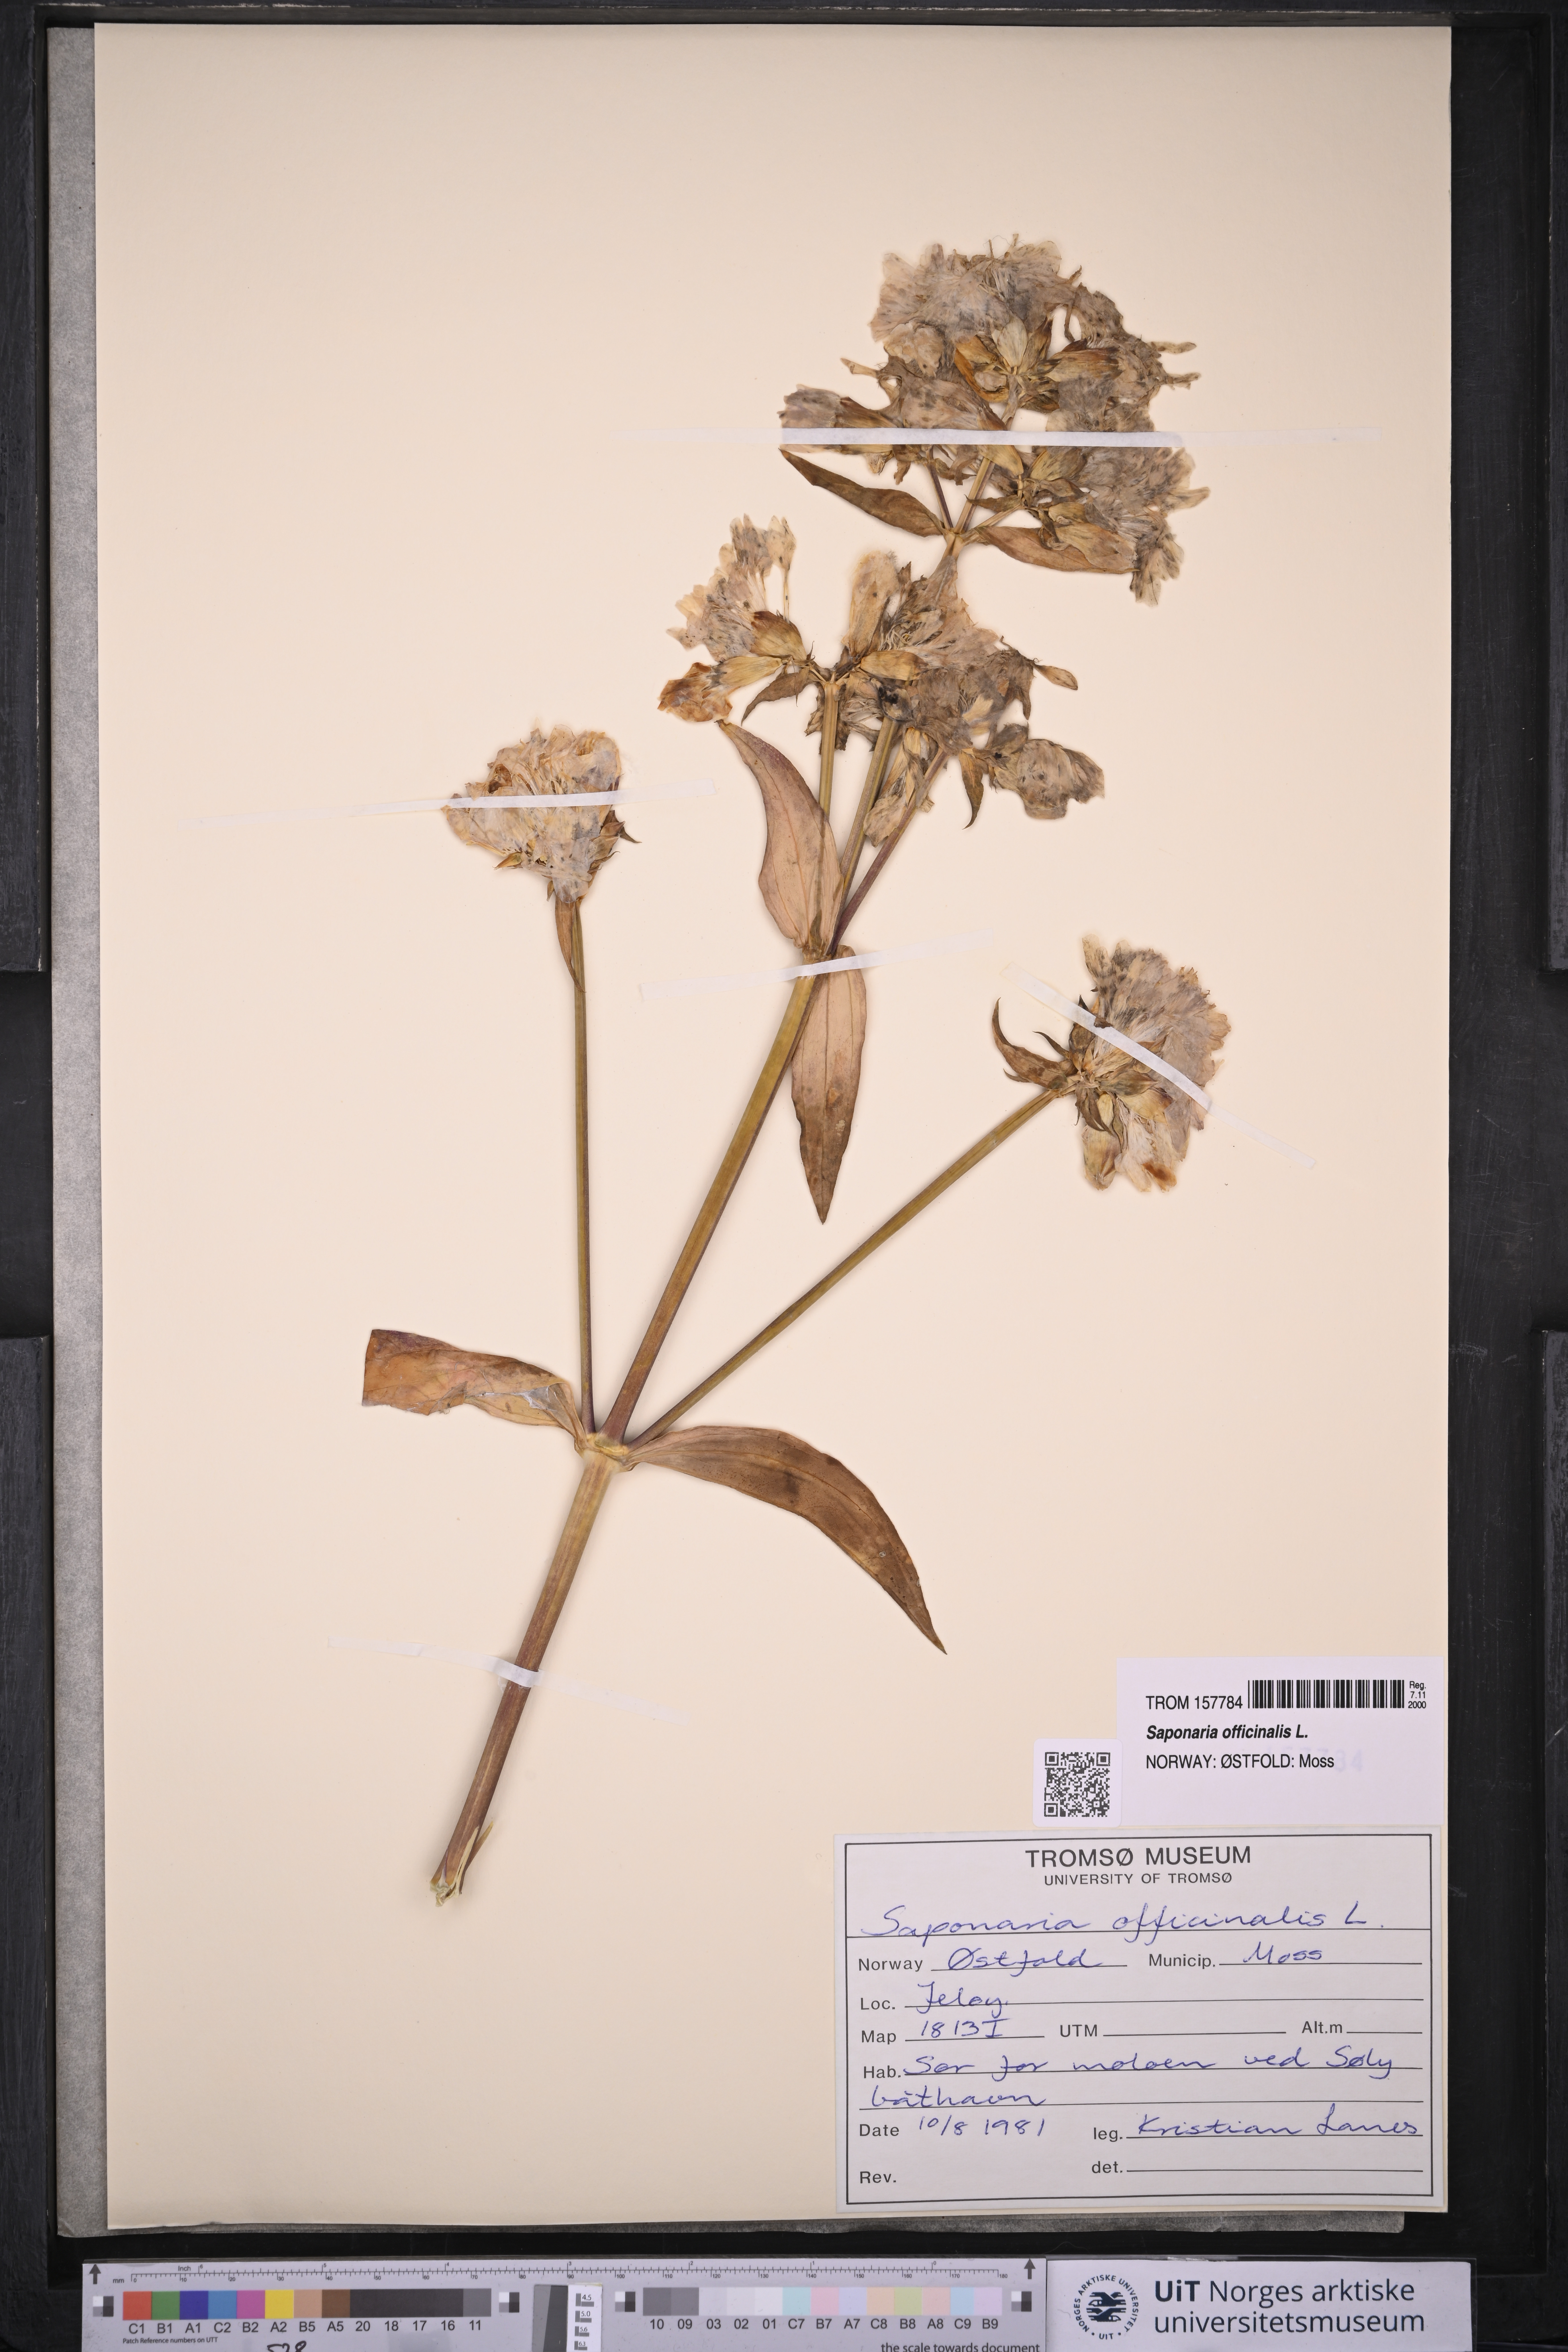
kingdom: Plantae
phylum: Tracheophyta
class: Magnoliopsida
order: Caryophyllales
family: Caryophyllaceae
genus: Saponaria
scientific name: Saponaria officinalis
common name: Soapwort
